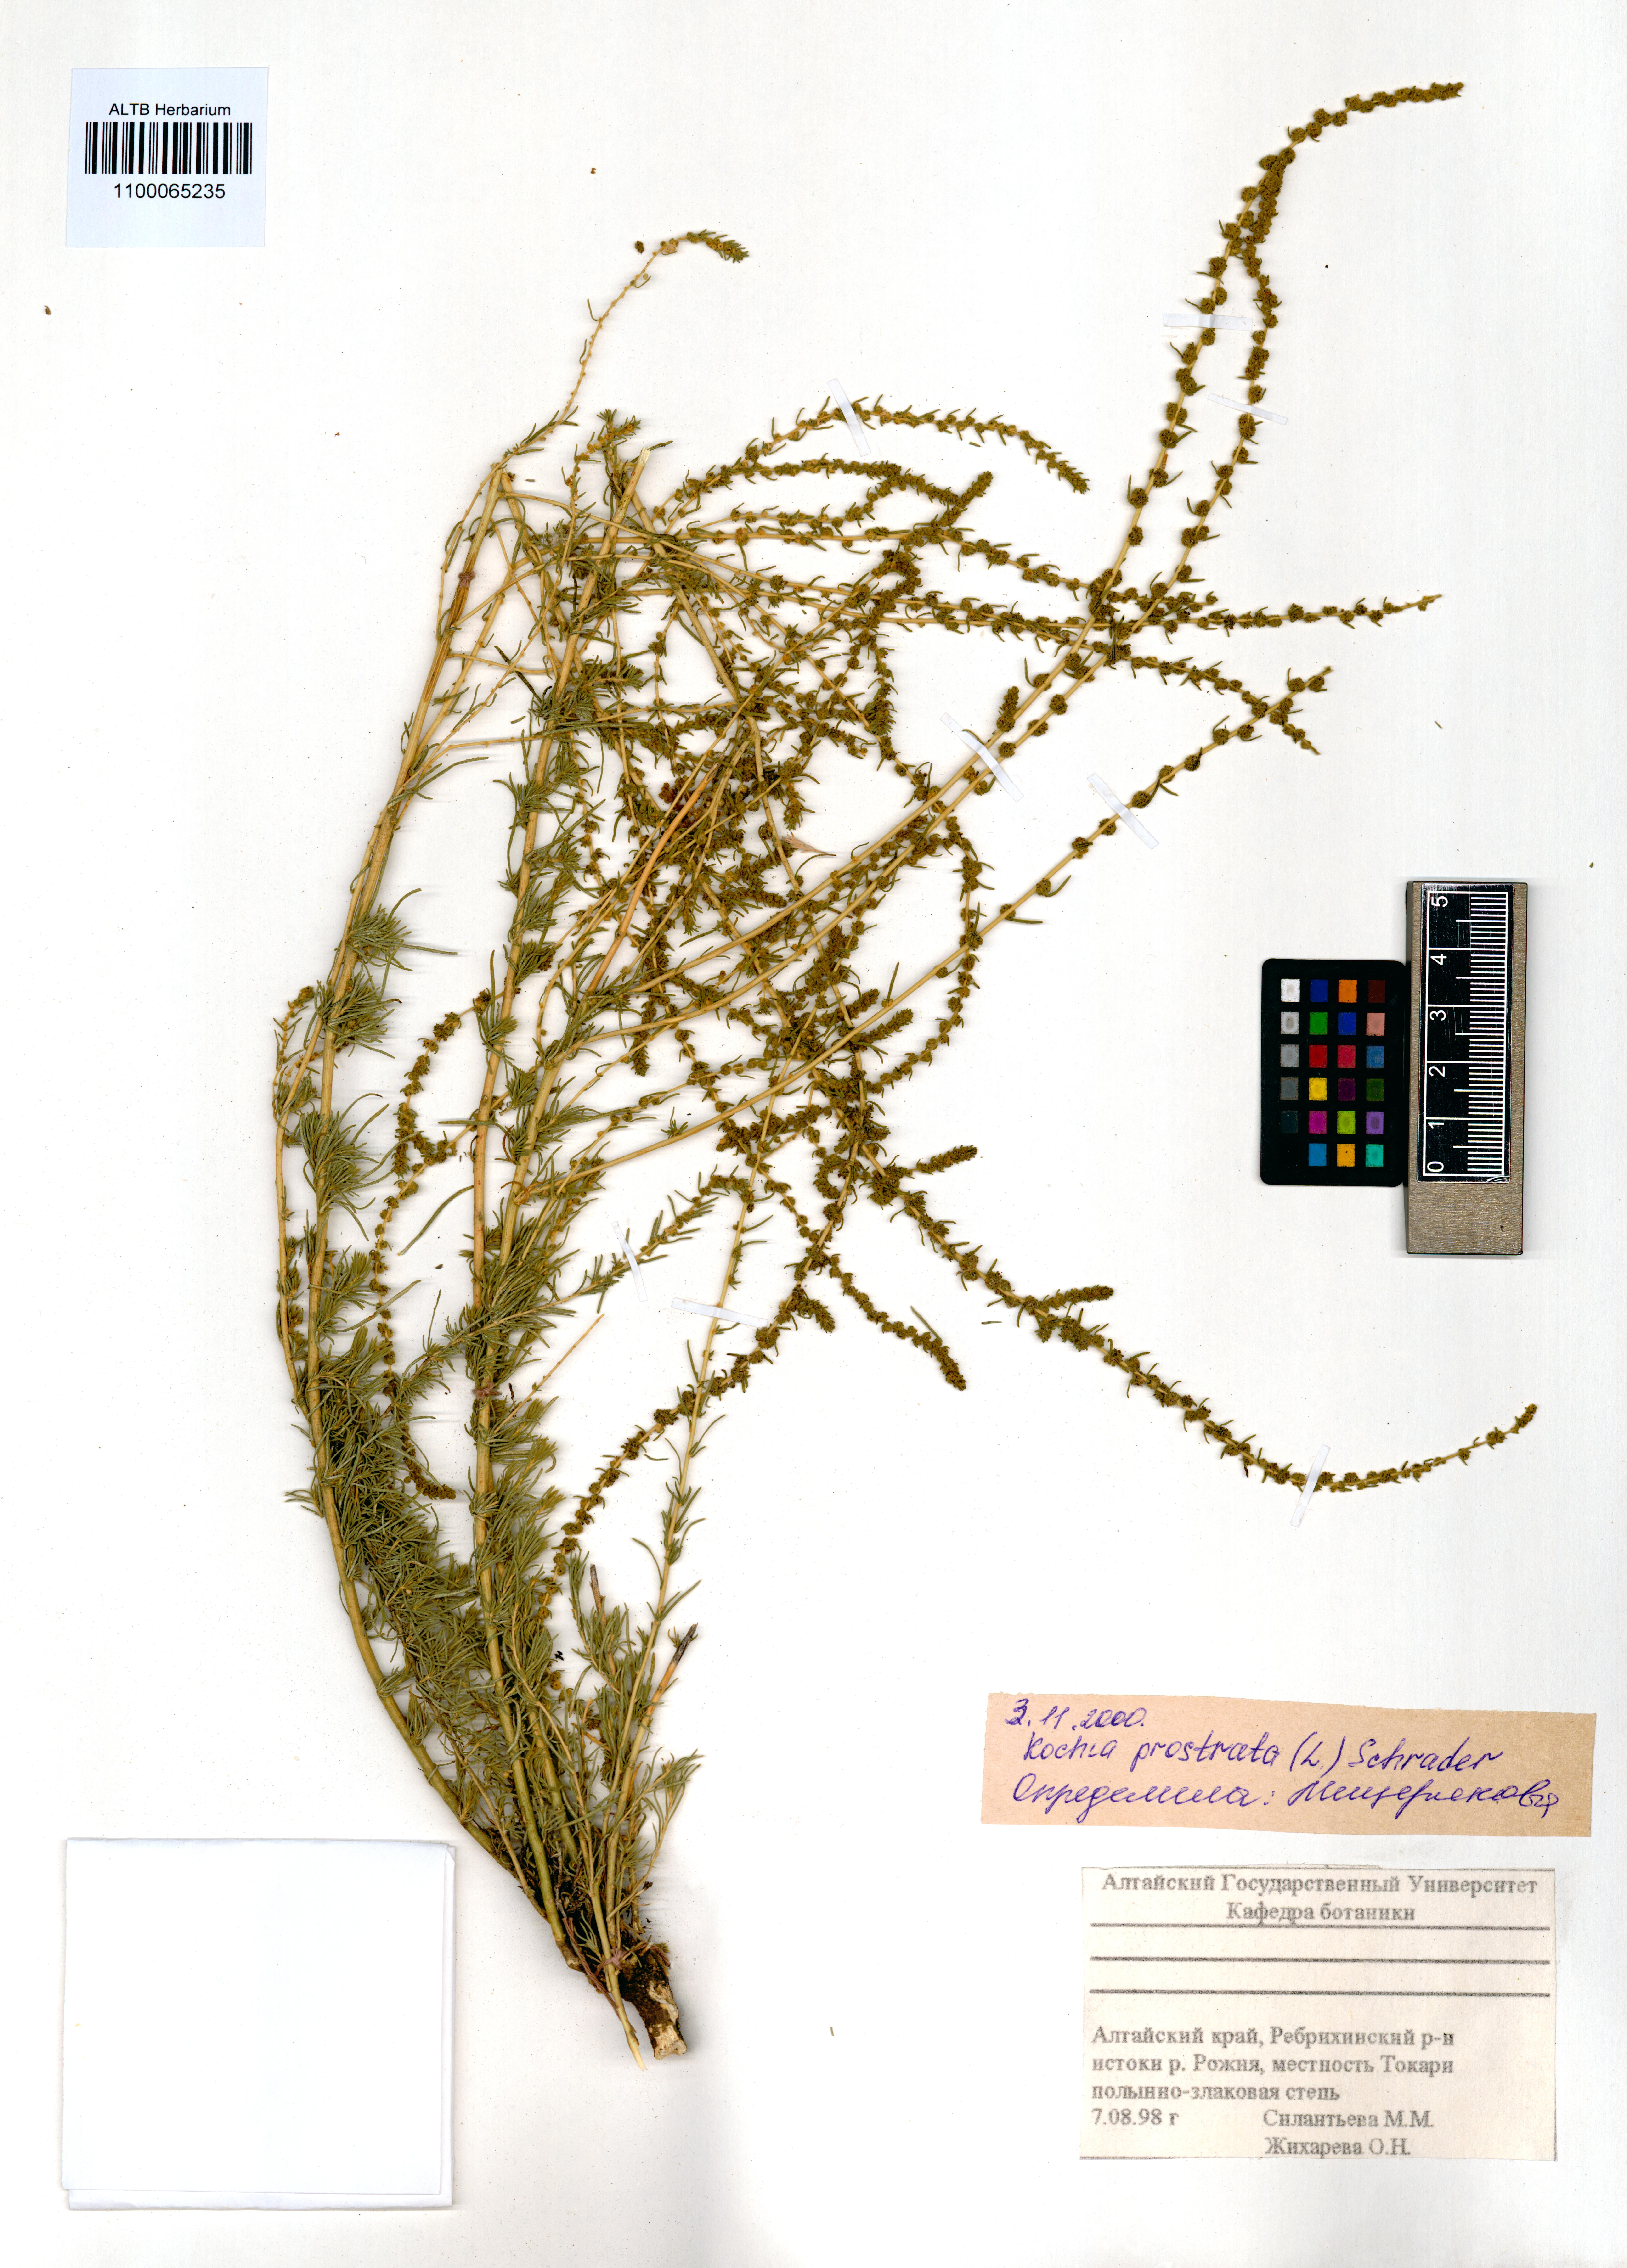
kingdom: Plantae
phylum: Tracheophyta
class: Magnoliopsida
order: Caryophyllales
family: Amaranthaceae
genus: Bassia
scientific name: Bassia prostrata
